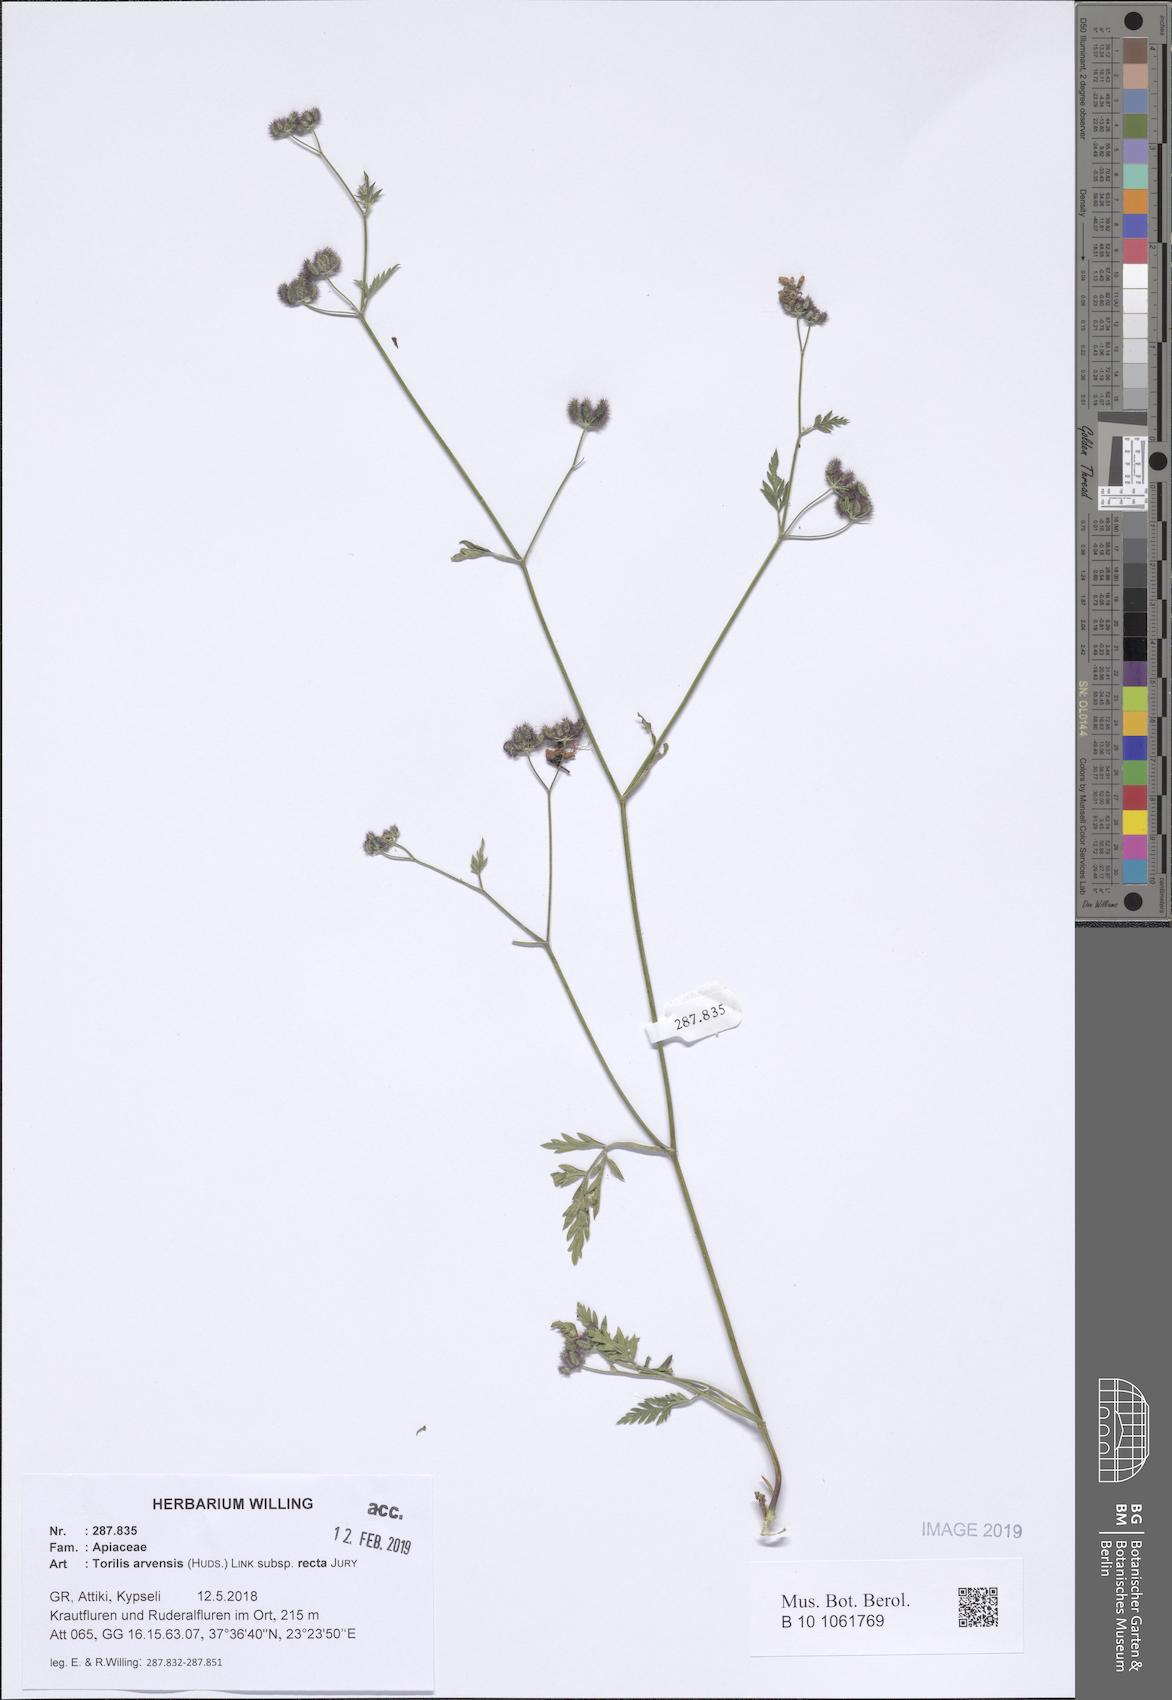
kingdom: Plantae
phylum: Tracheophyta
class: Magnoliopsida
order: Apiales
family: Apiaceae
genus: Torilis
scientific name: Torilis arvensis
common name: Spreading hedge-parsley
